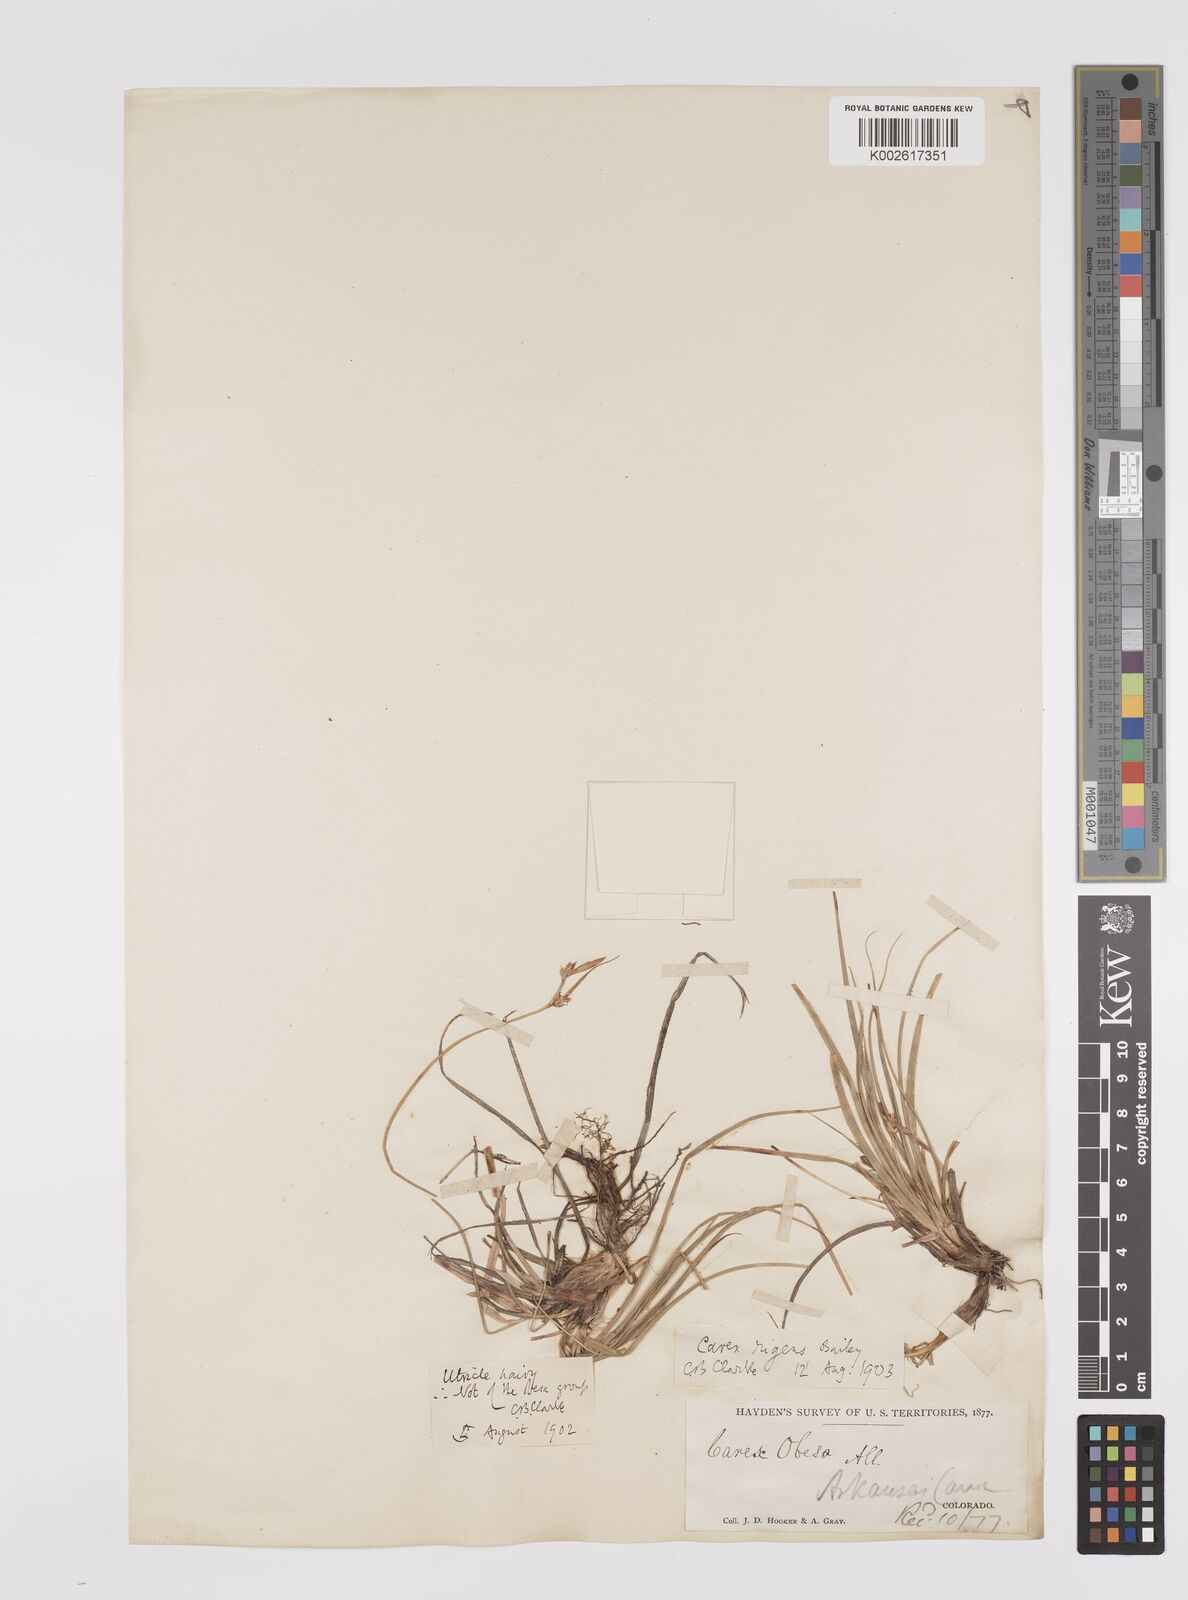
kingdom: Plantae
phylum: Tracheophyta
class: Liliopsida
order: Poales
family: Cyperaceae
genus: Carex
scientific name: Carex turbinata
